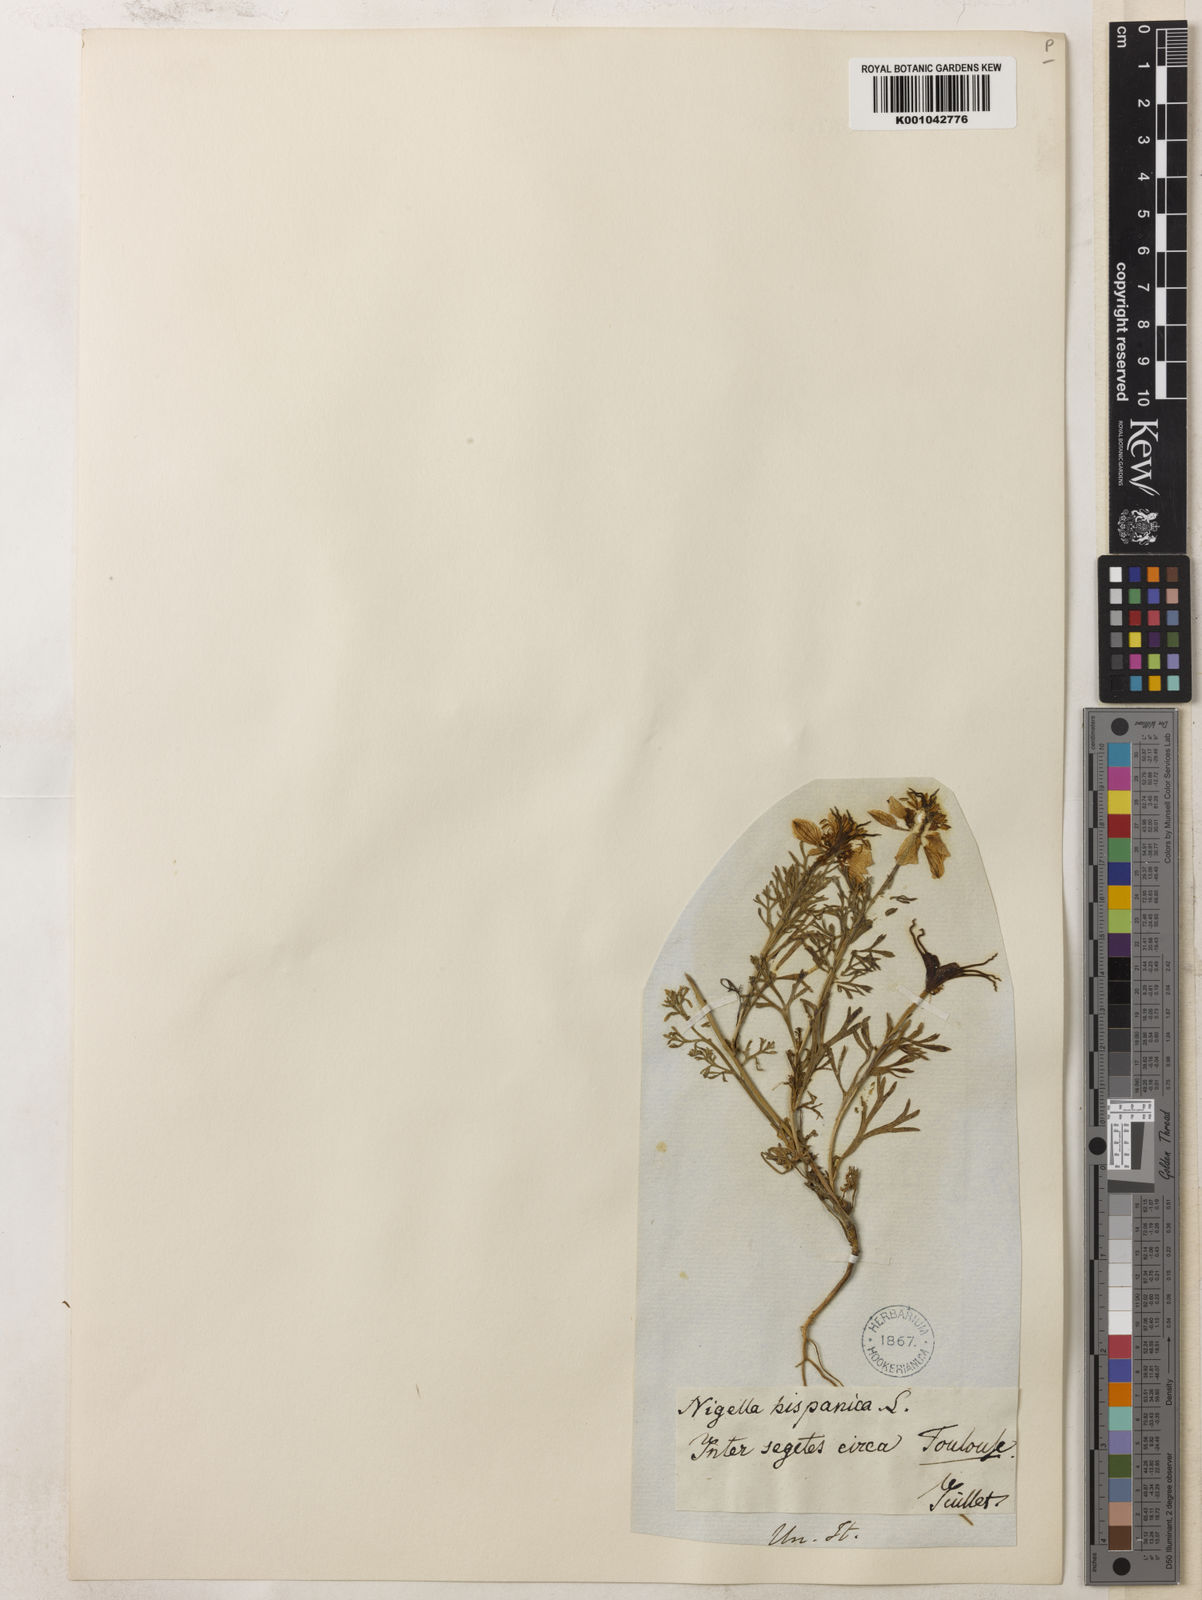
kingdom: Plantae
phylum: Tracheophyta
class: Magnoliopsida
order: Ranunculales
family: Ranunculaceae
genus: Nigella
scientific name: Nigella hispanica
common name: Fennel-flower
